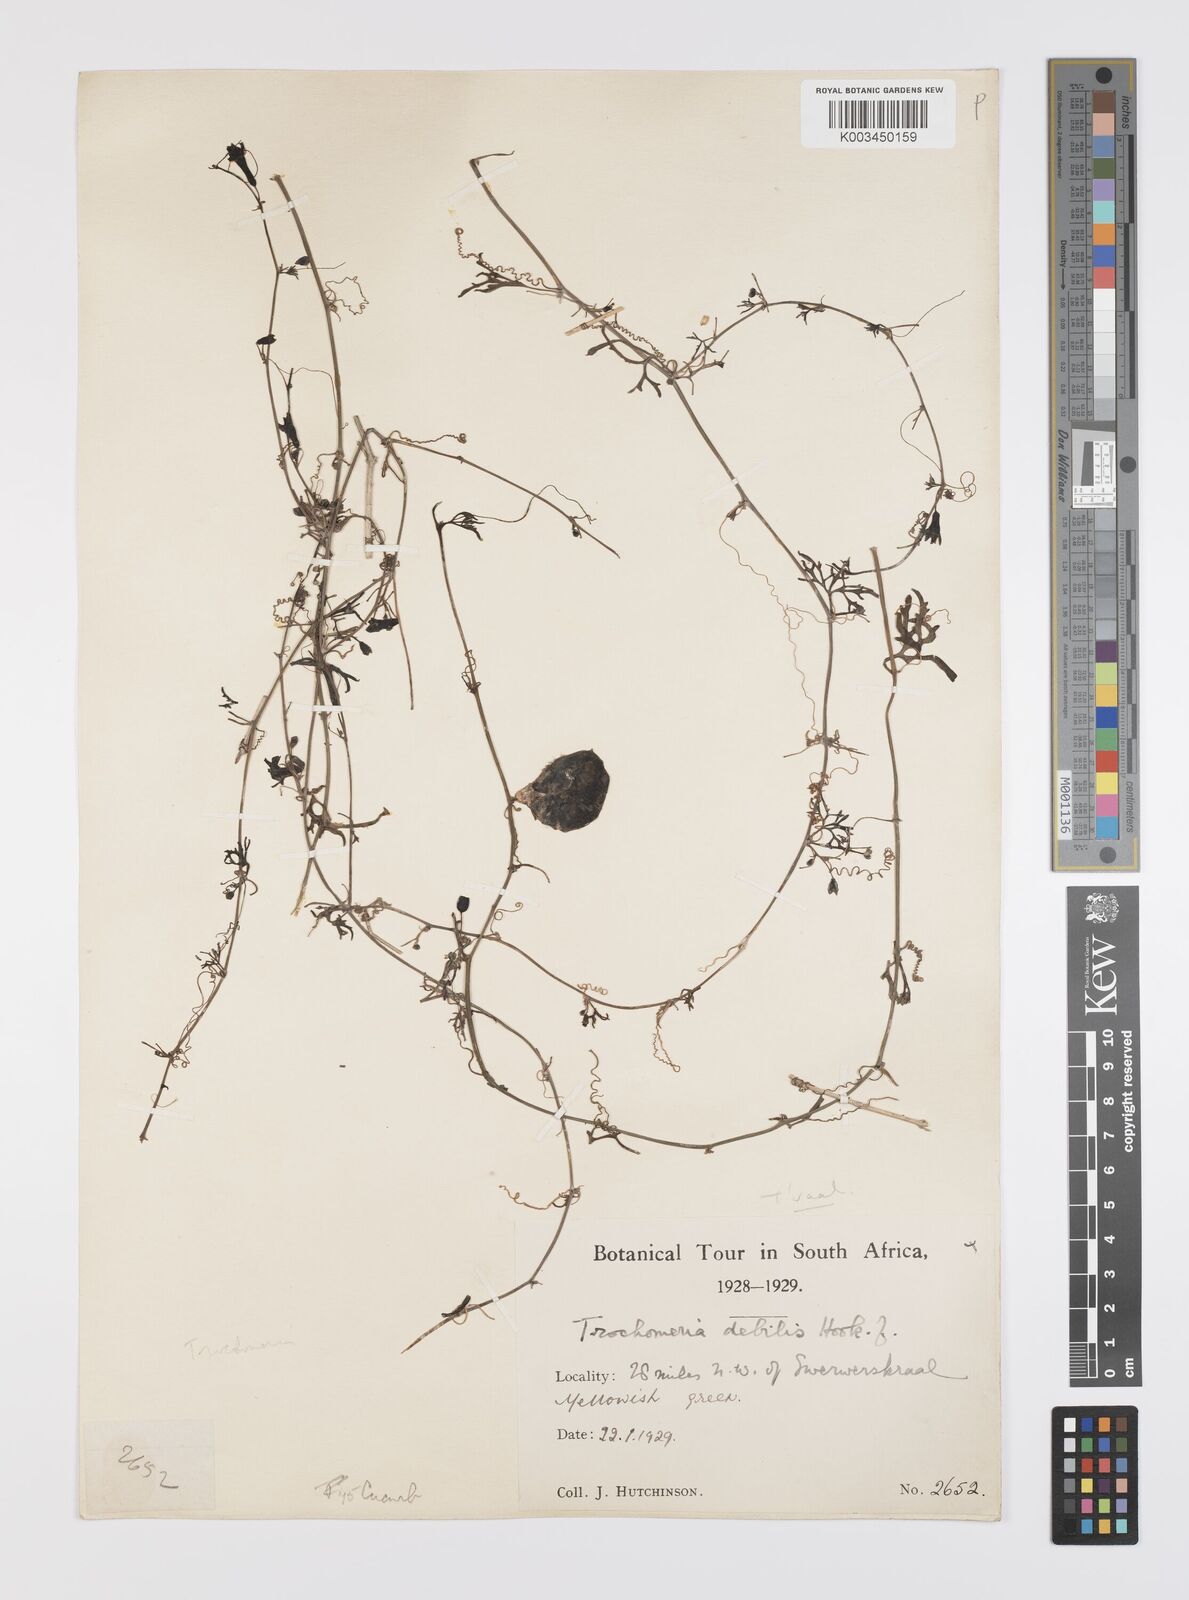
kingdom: Plantae
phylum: Tracheophyta
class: Magnoliopsida
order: Cucurbitales
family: Cucurbitaceae
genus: Trochomeria
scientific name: Trochomeria debilis
